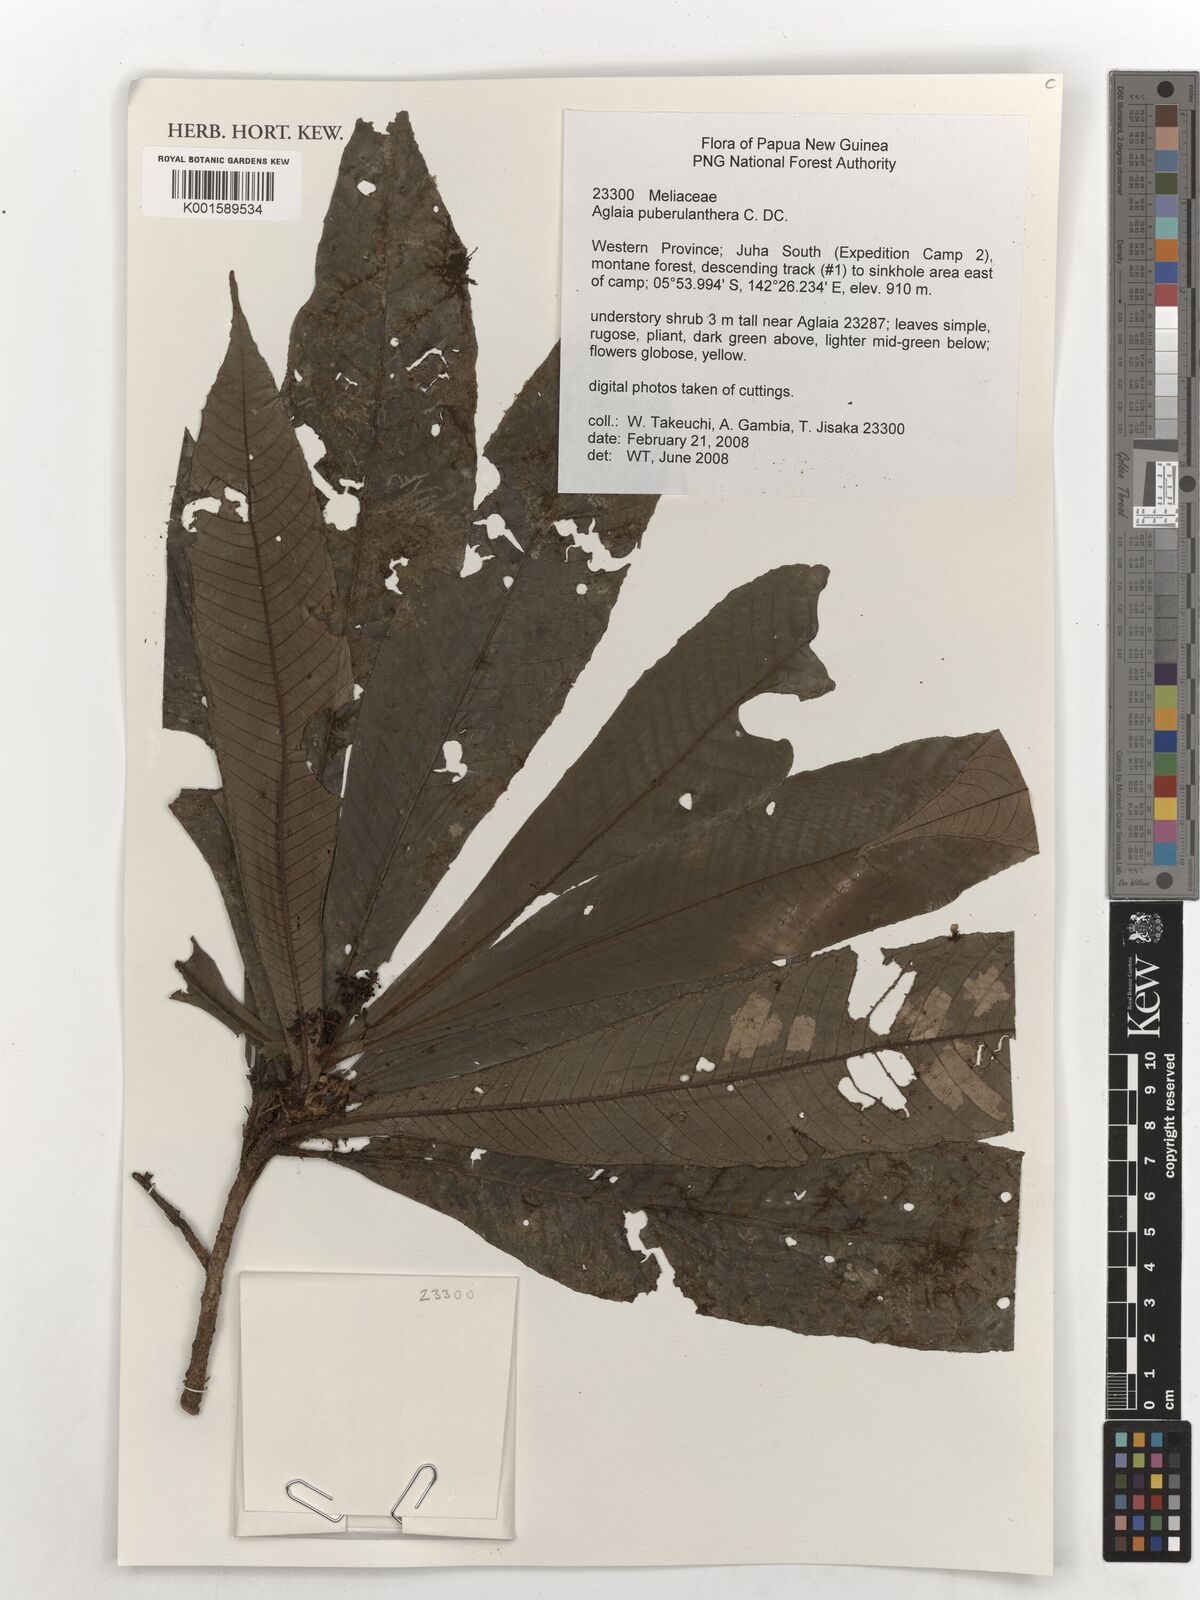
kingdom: Plantae
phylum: Tracheophyta
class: Magnoliopsida
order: Sapindales
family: Meliaceae
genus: Aglaia
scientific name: Aglaia puberulanthera
